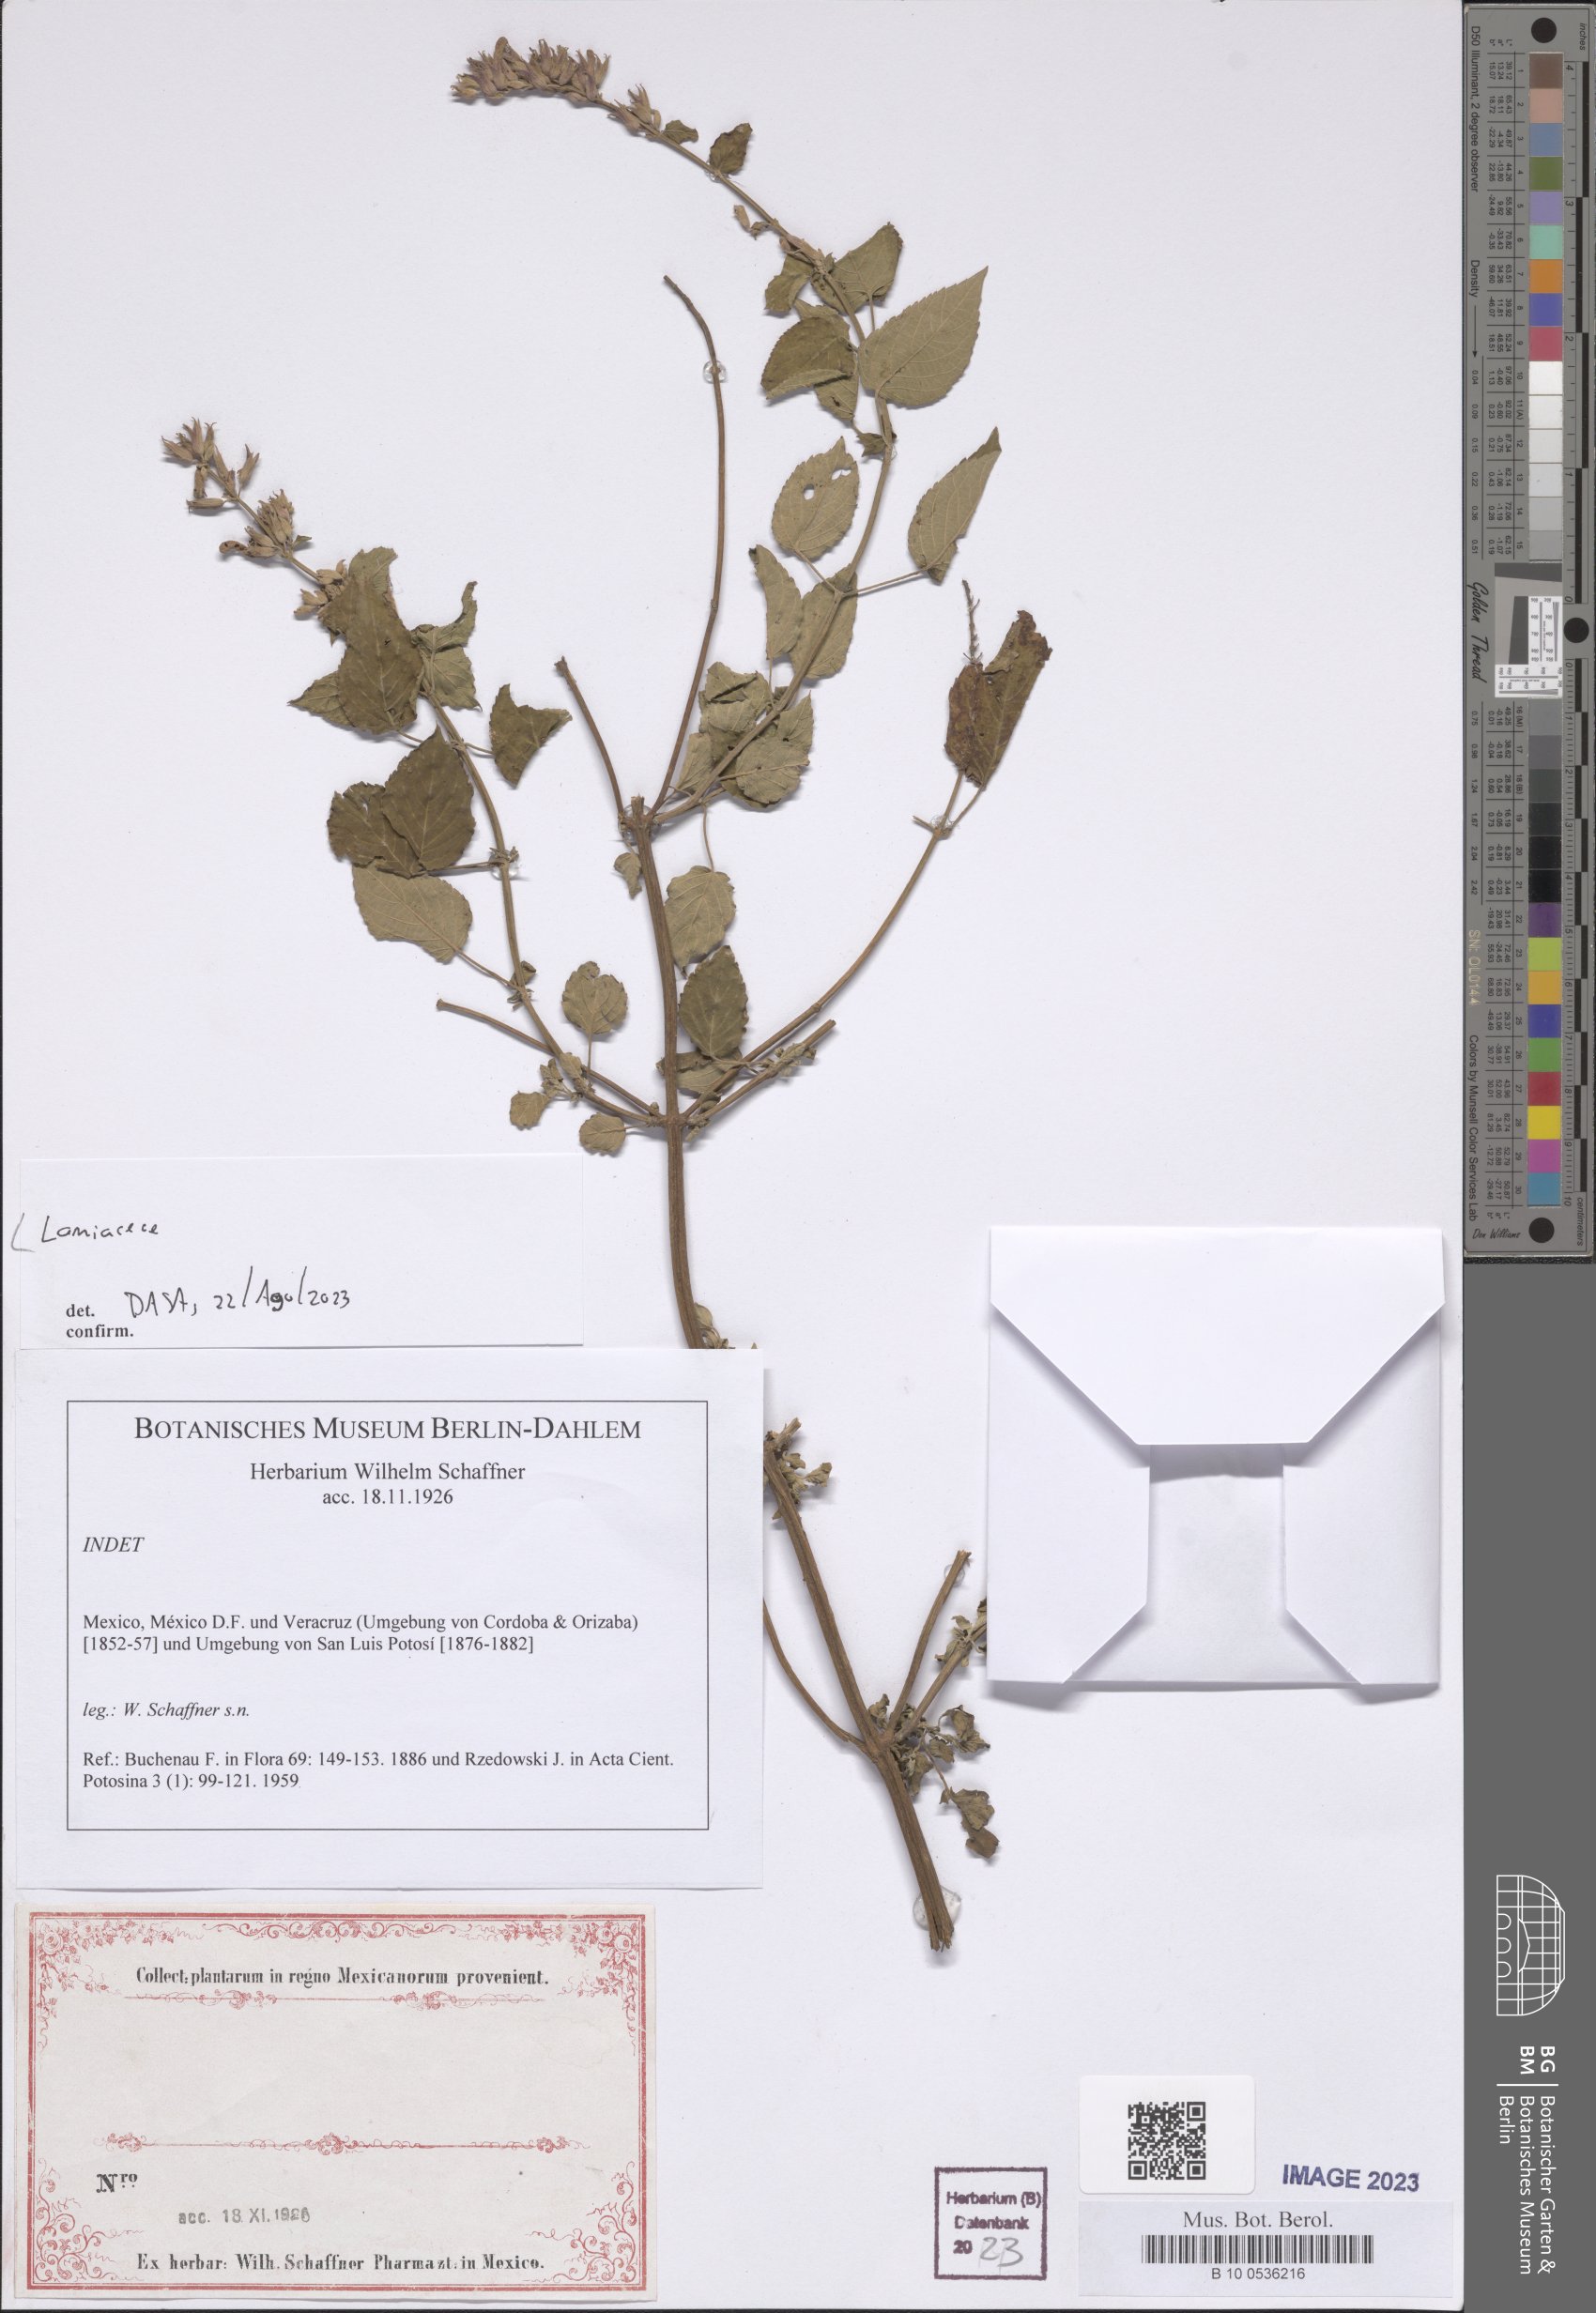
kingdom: Plantae
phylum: Tracheophyta
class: Magnoliopsida
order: Lamiales
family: Lamiaceae
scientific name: Lamiaceae
